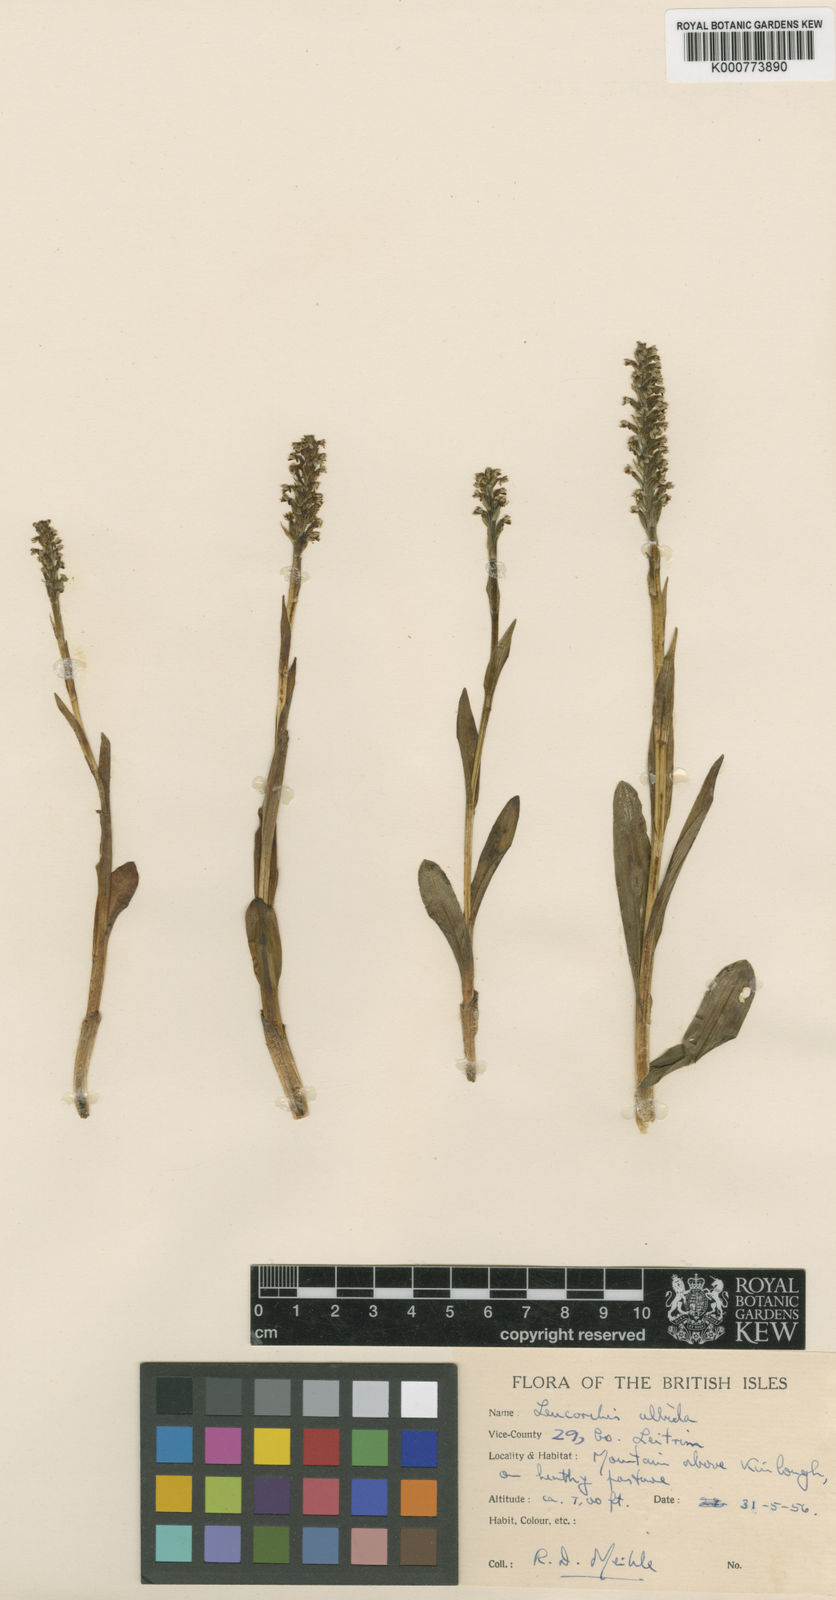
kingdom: Plantae
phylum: Tracheophyta
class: Liliopsida
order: Asparagales
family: Orchidaceae
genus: Pseudorchis
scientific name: Pseudorchis
